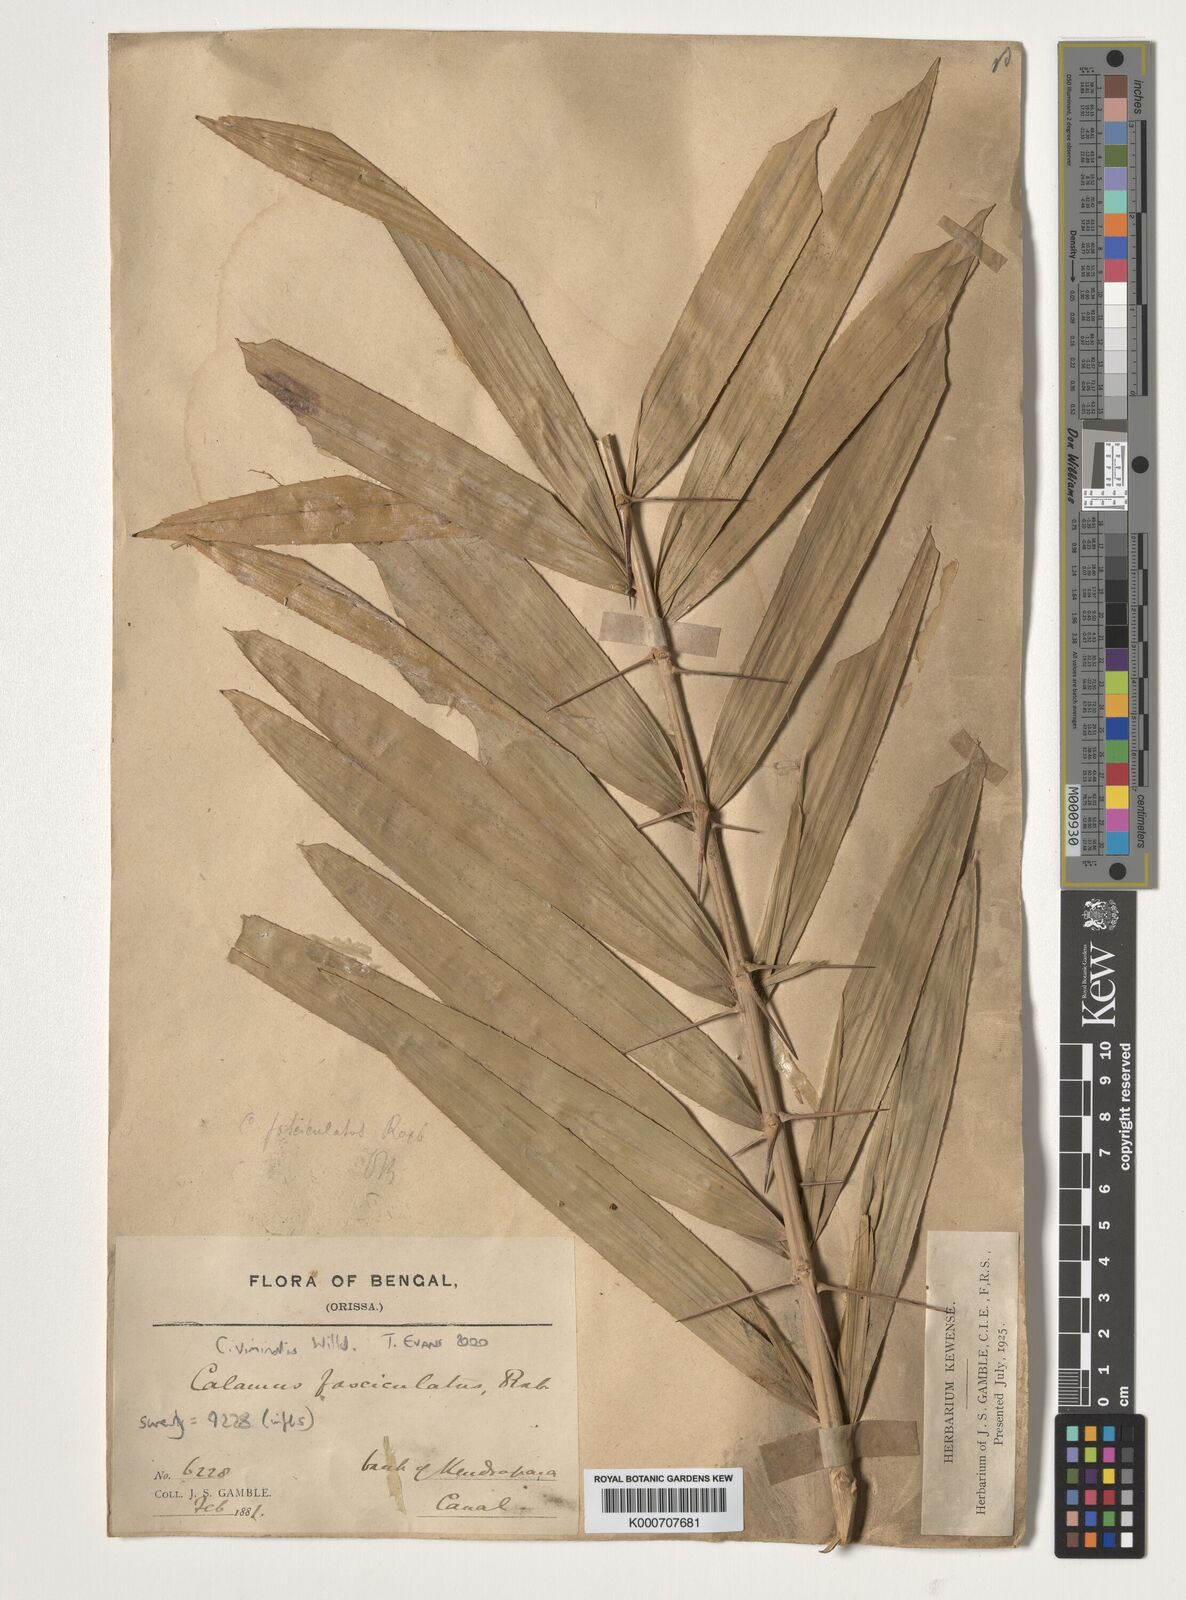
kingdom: Plantae
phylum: Tracheophyta
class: Liliopsida
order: Arecales
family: Arecaceae
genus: Calamus
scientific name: Calamus viminalis
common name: Osier-like rattan palm
